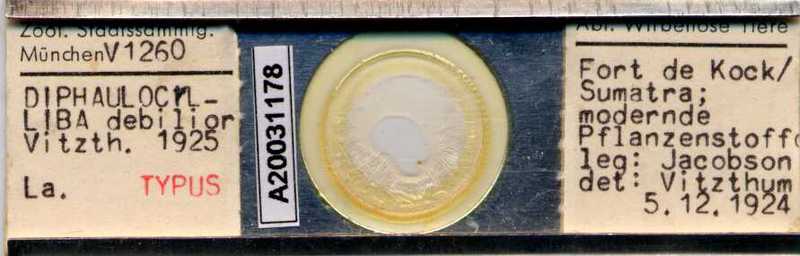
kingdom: Animalia
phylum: Arthropoda
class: Arachnida
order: Mesostigmata
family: Uropodidae
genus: Uropoda
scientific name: Uropoda
